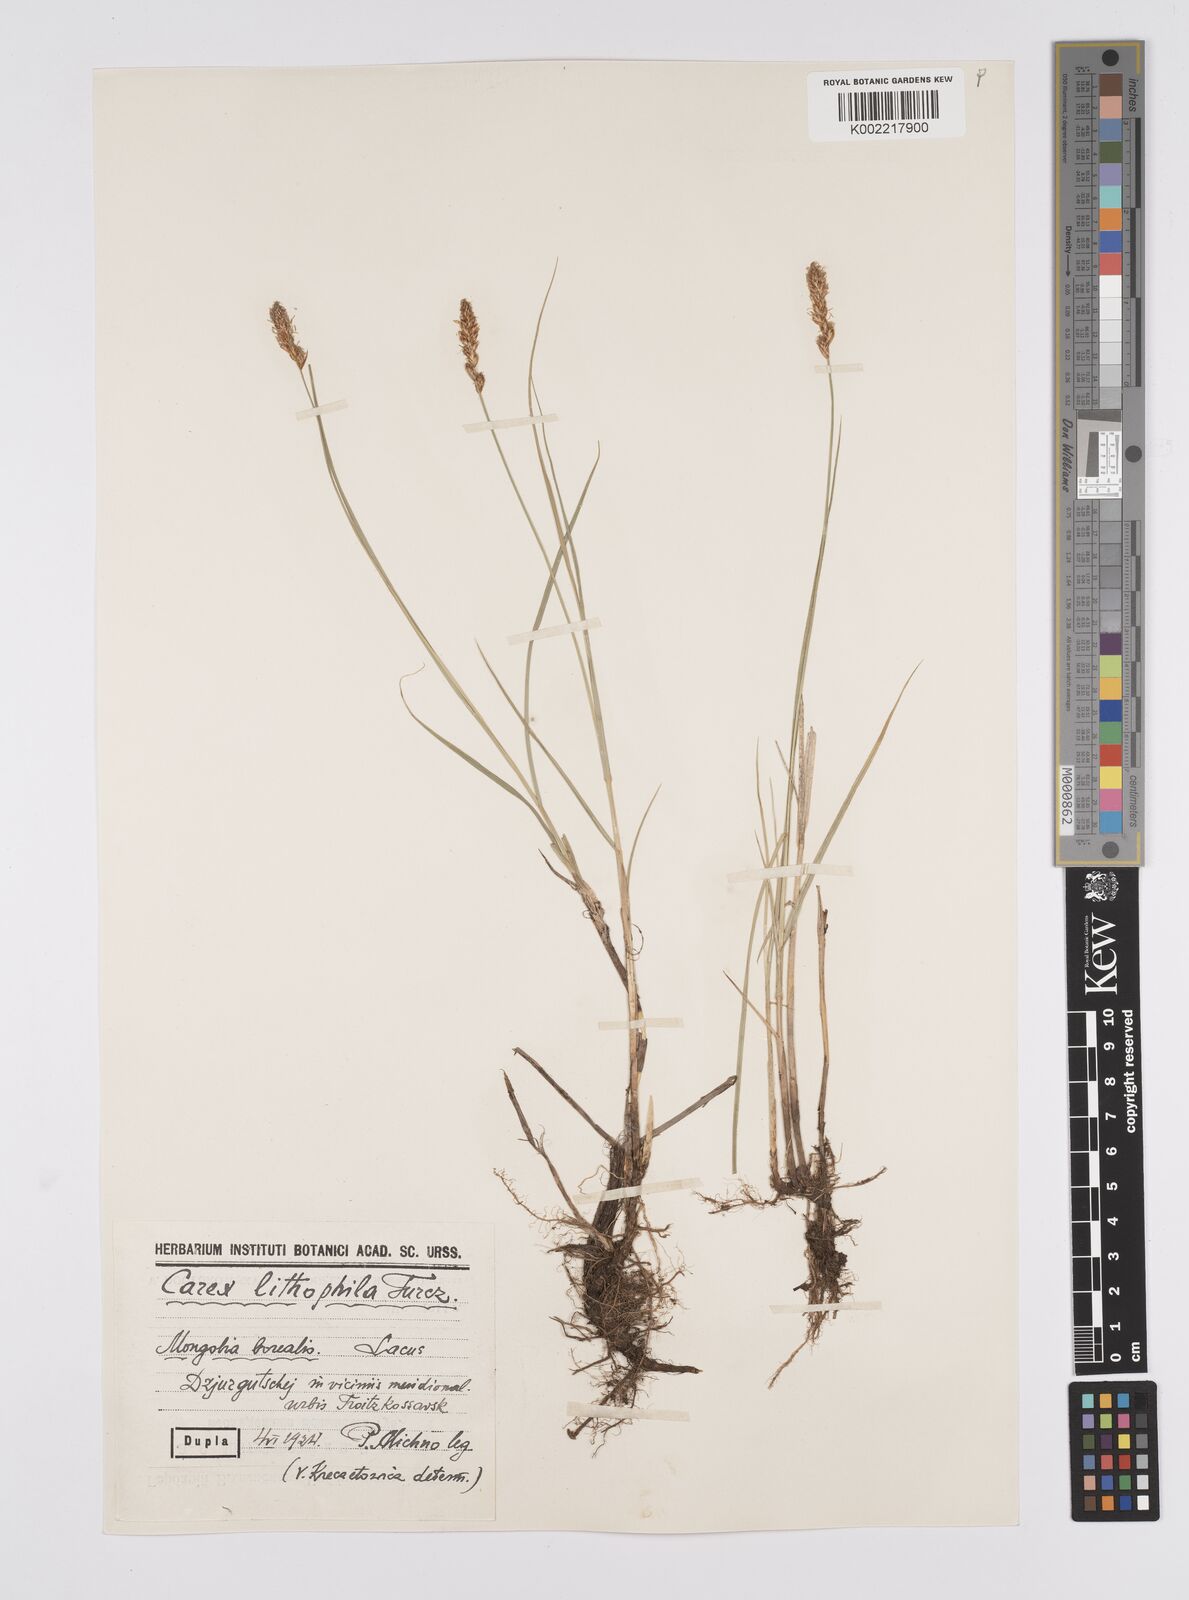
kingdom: Plantae
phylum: Tracheophyta
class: Liliopsida
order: Poales
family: Cyperaceae
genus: Carex
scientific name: Carex disticha
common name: Brown sedge
